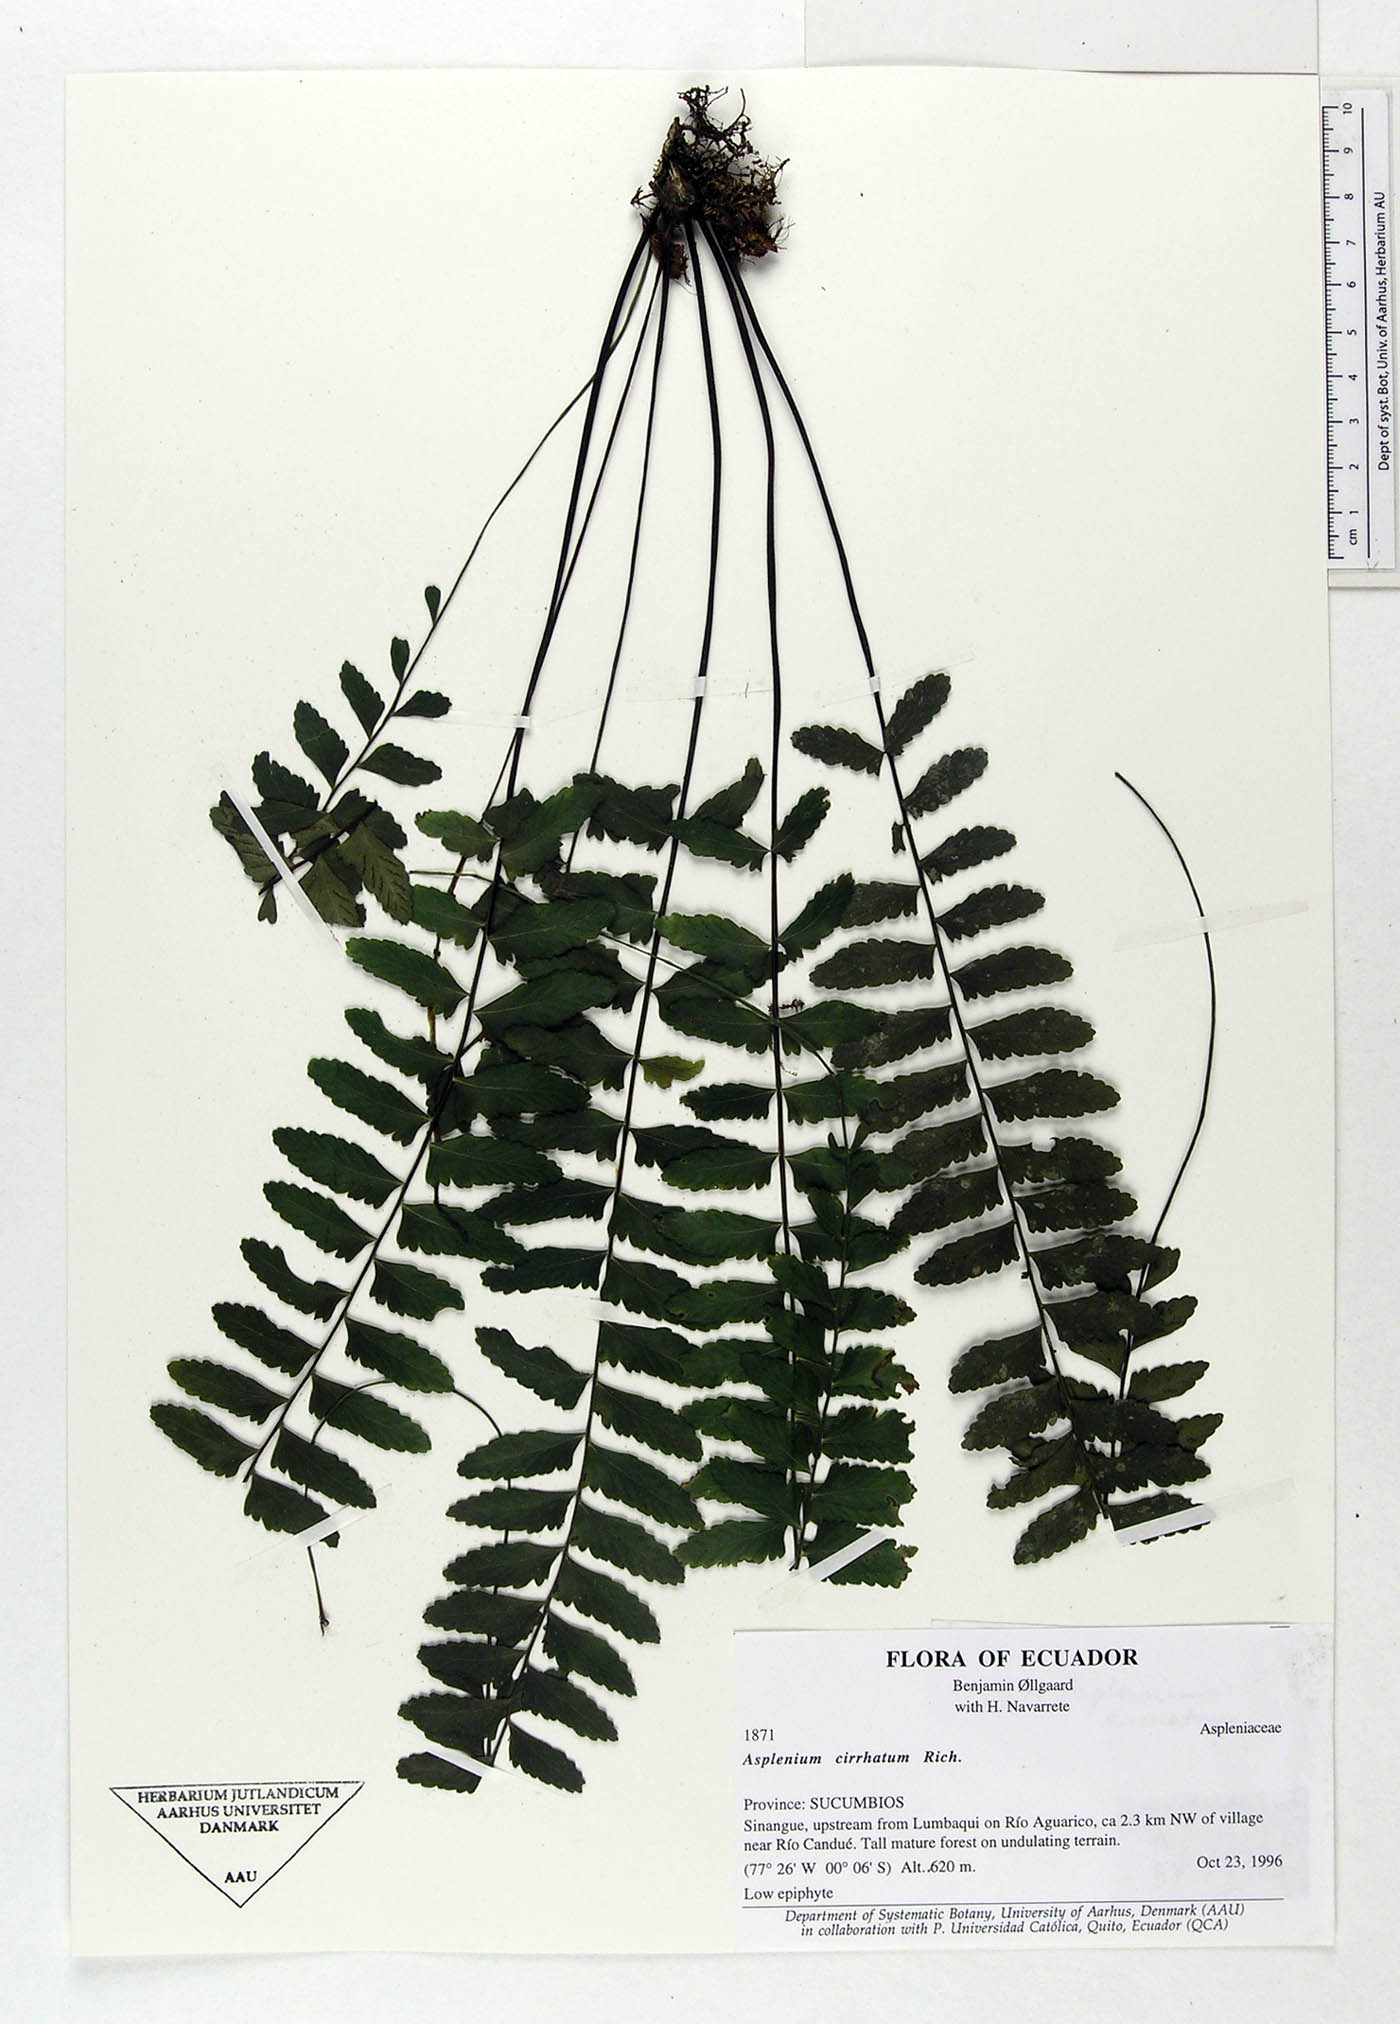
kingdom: Plantae
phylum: Tracheophyta
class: Polypodiopsida
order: Polypodiales
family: Aspleniaceae
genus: Asplenium
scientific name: Asplenium cirrhatum
